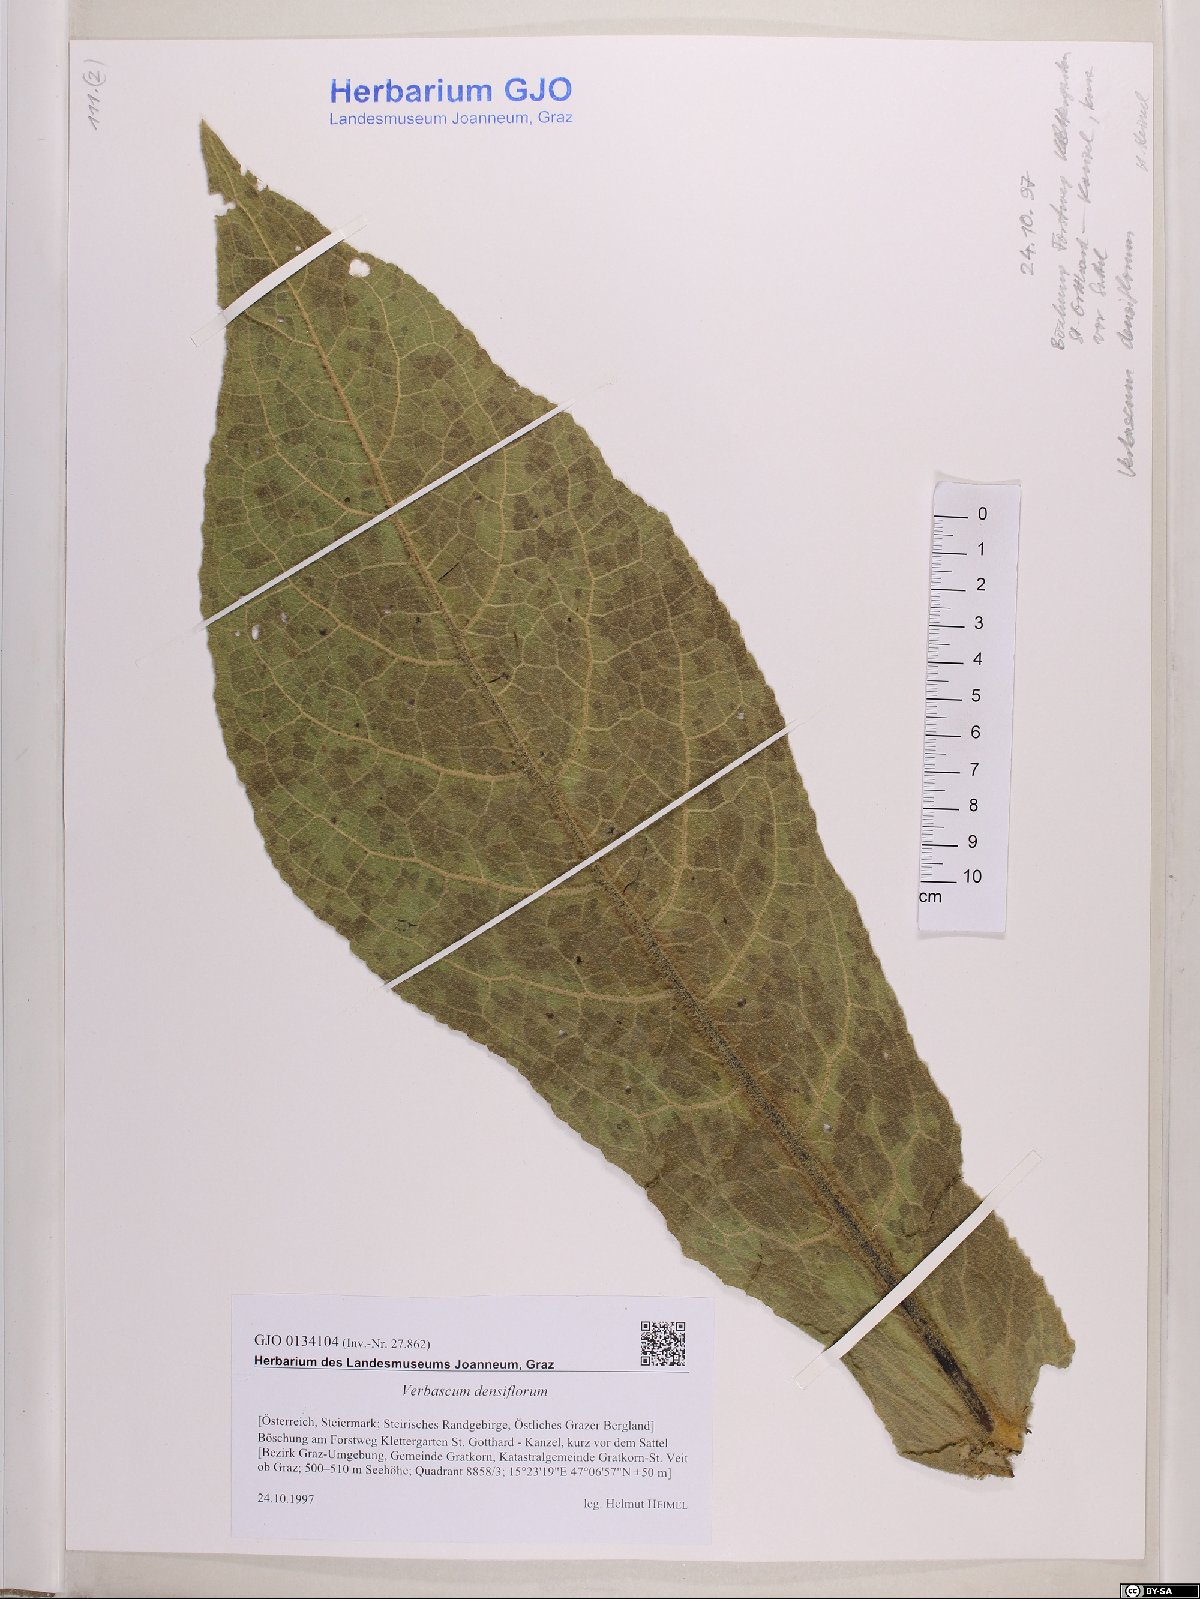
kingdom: Plantae
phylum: Tracheophyta
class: Magnoliopsida
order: Lamiales
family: Scrophulariaceae
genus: Verbascum
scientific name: Verbascum densiflorum
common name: Dense-flowered mullein
